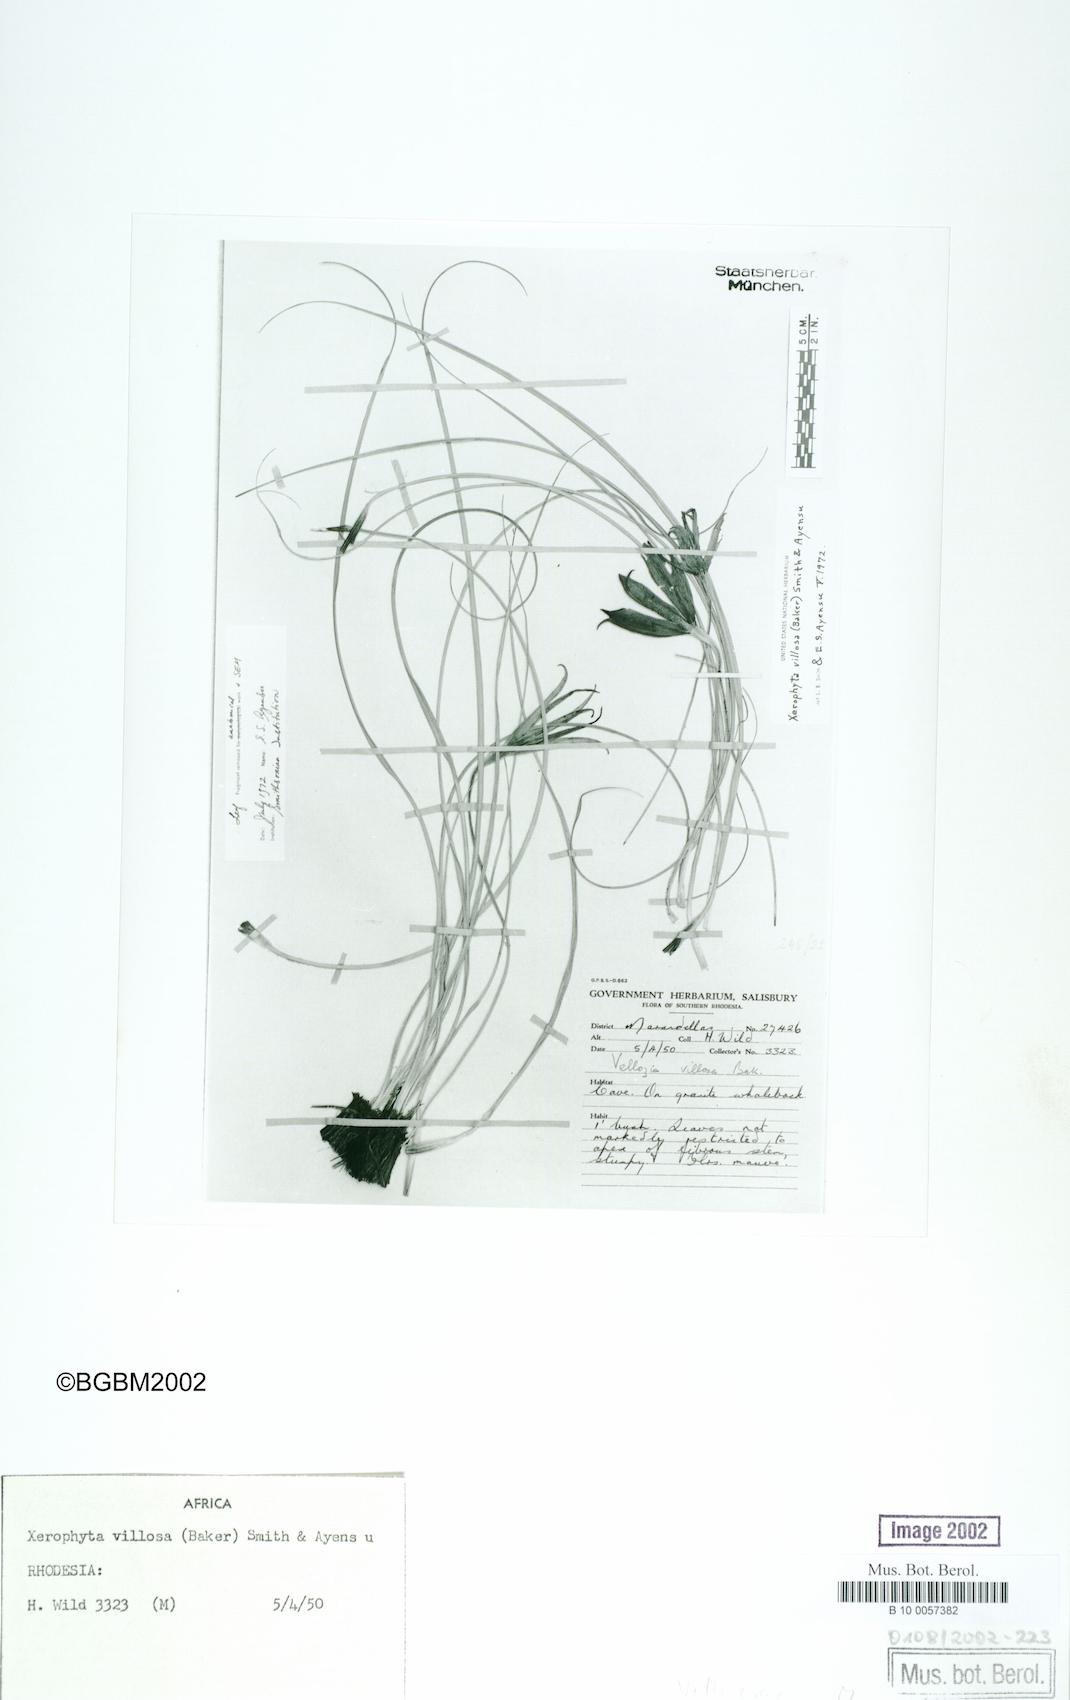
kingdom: Plantae
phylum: Tracheophyta
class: Liliopsida
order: Pandanales
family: Velloziaceae
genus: Xerophyta
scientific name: Xerophyta villosa
